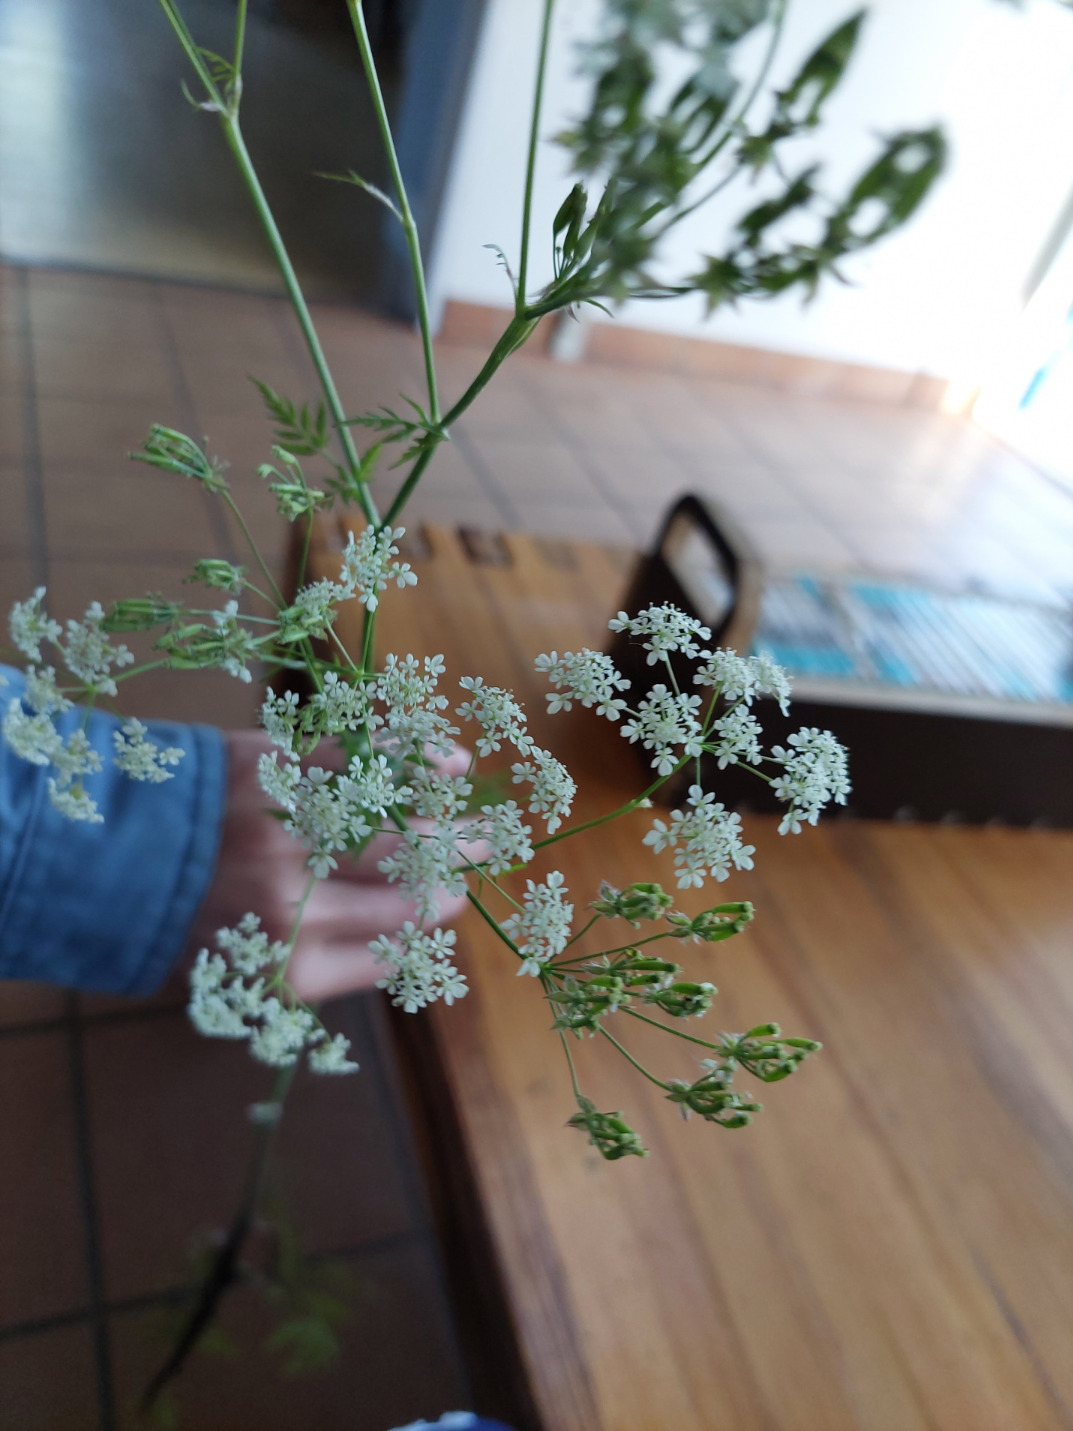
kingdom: Plantae
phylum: Tracheophyta
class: Magnoliopsida
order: Apiales
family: Apiaceae
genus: Anthriscus
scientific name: Anthriscus sylvestris
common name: Vild kørvel
